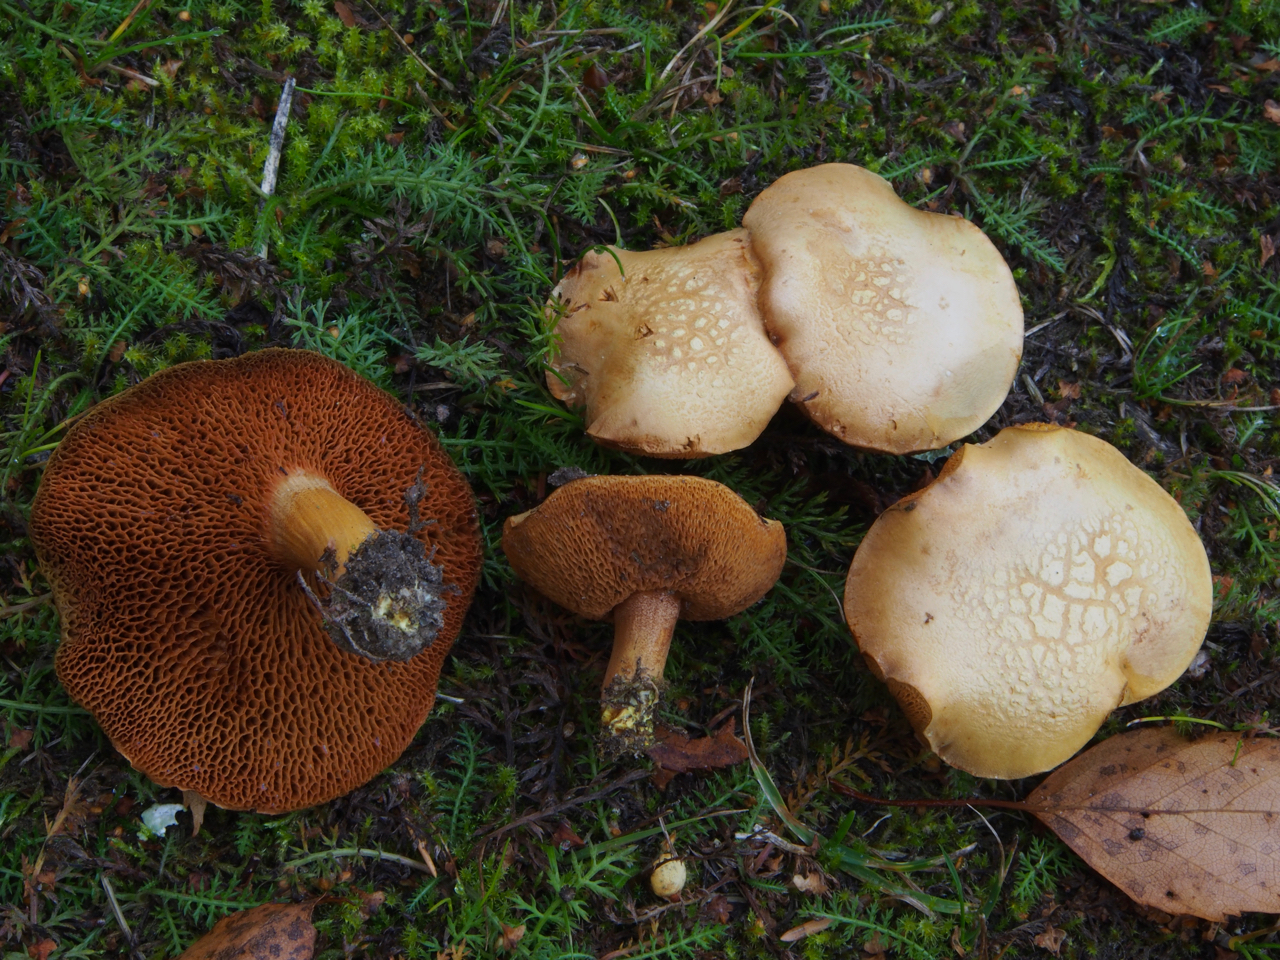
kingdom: Fungi
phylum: Basidiomycota
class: Agaricomycetes
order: Boletales
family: Boletaceae
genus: Chalciporus
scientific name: Chalciporus piperatus
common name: Peppery bolete
